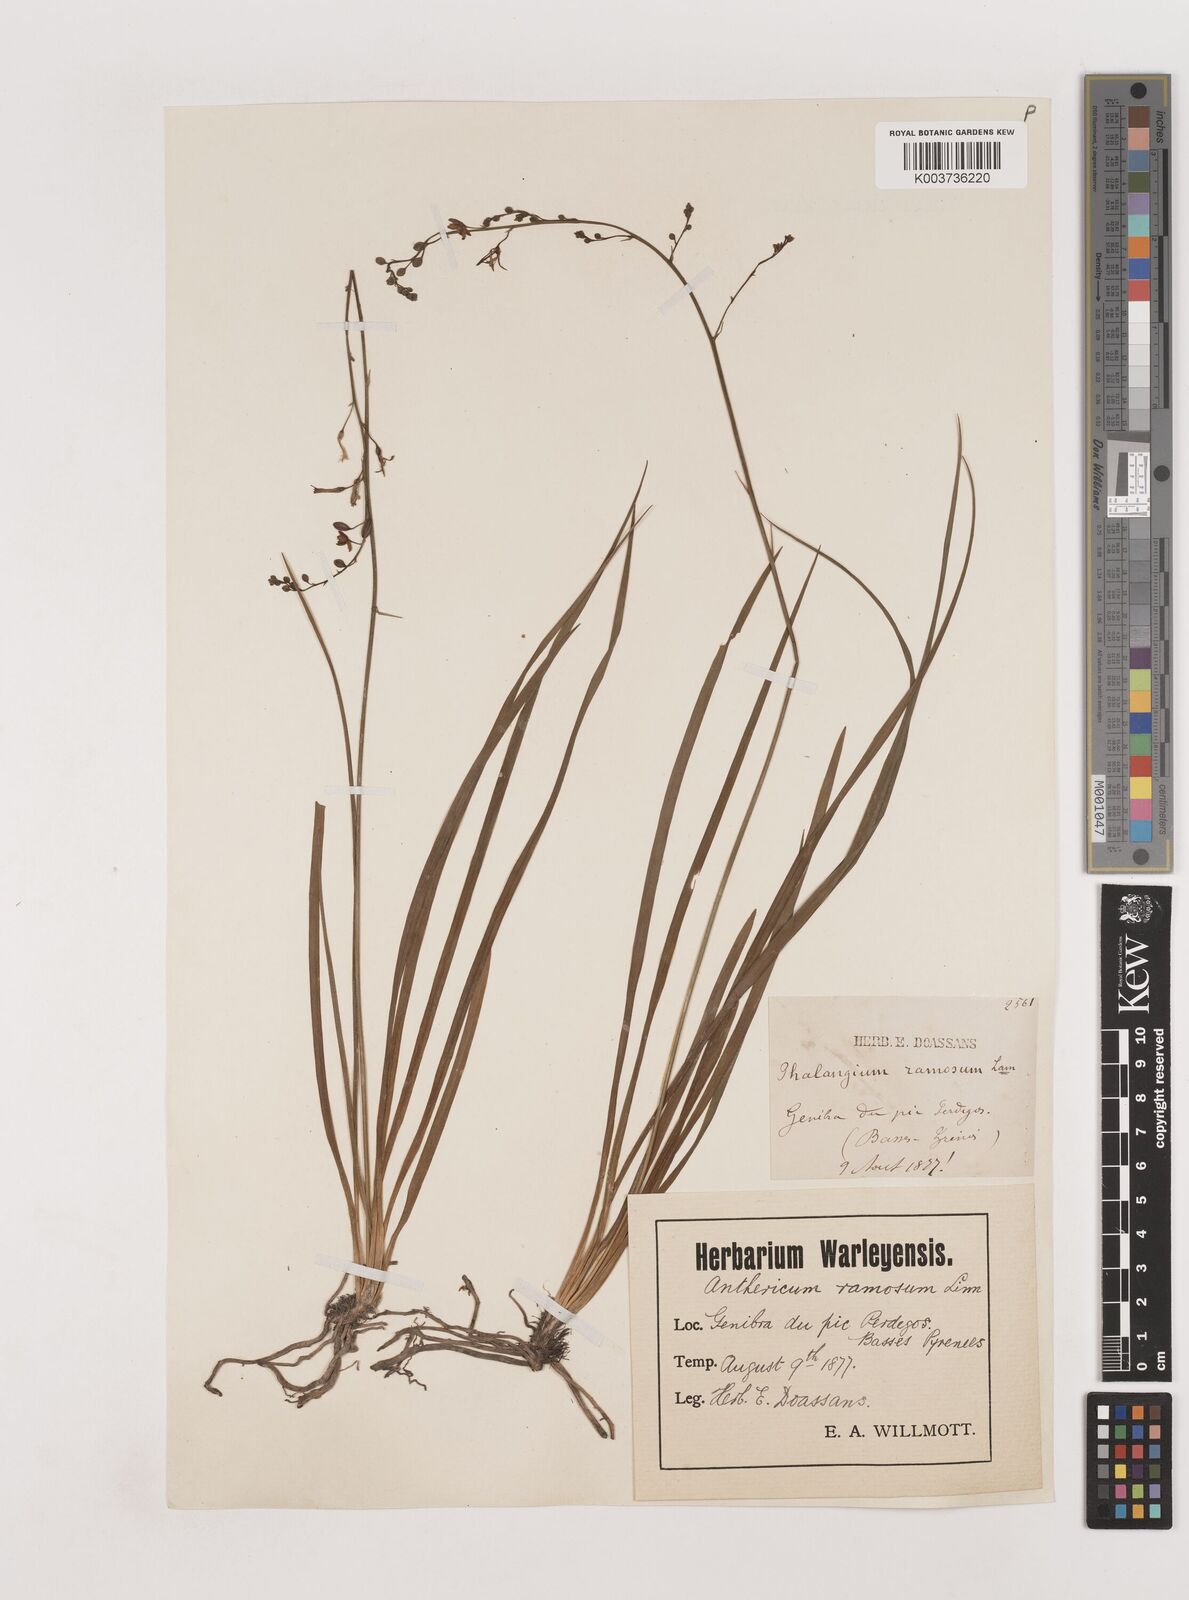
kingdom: Plantae
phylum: Tracheophyta
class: Liliopsida
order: Asparagales
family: Asparagaceae
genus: Anthericum
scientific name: Anthericum ramosum
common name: Branched st. bernard's-lily
